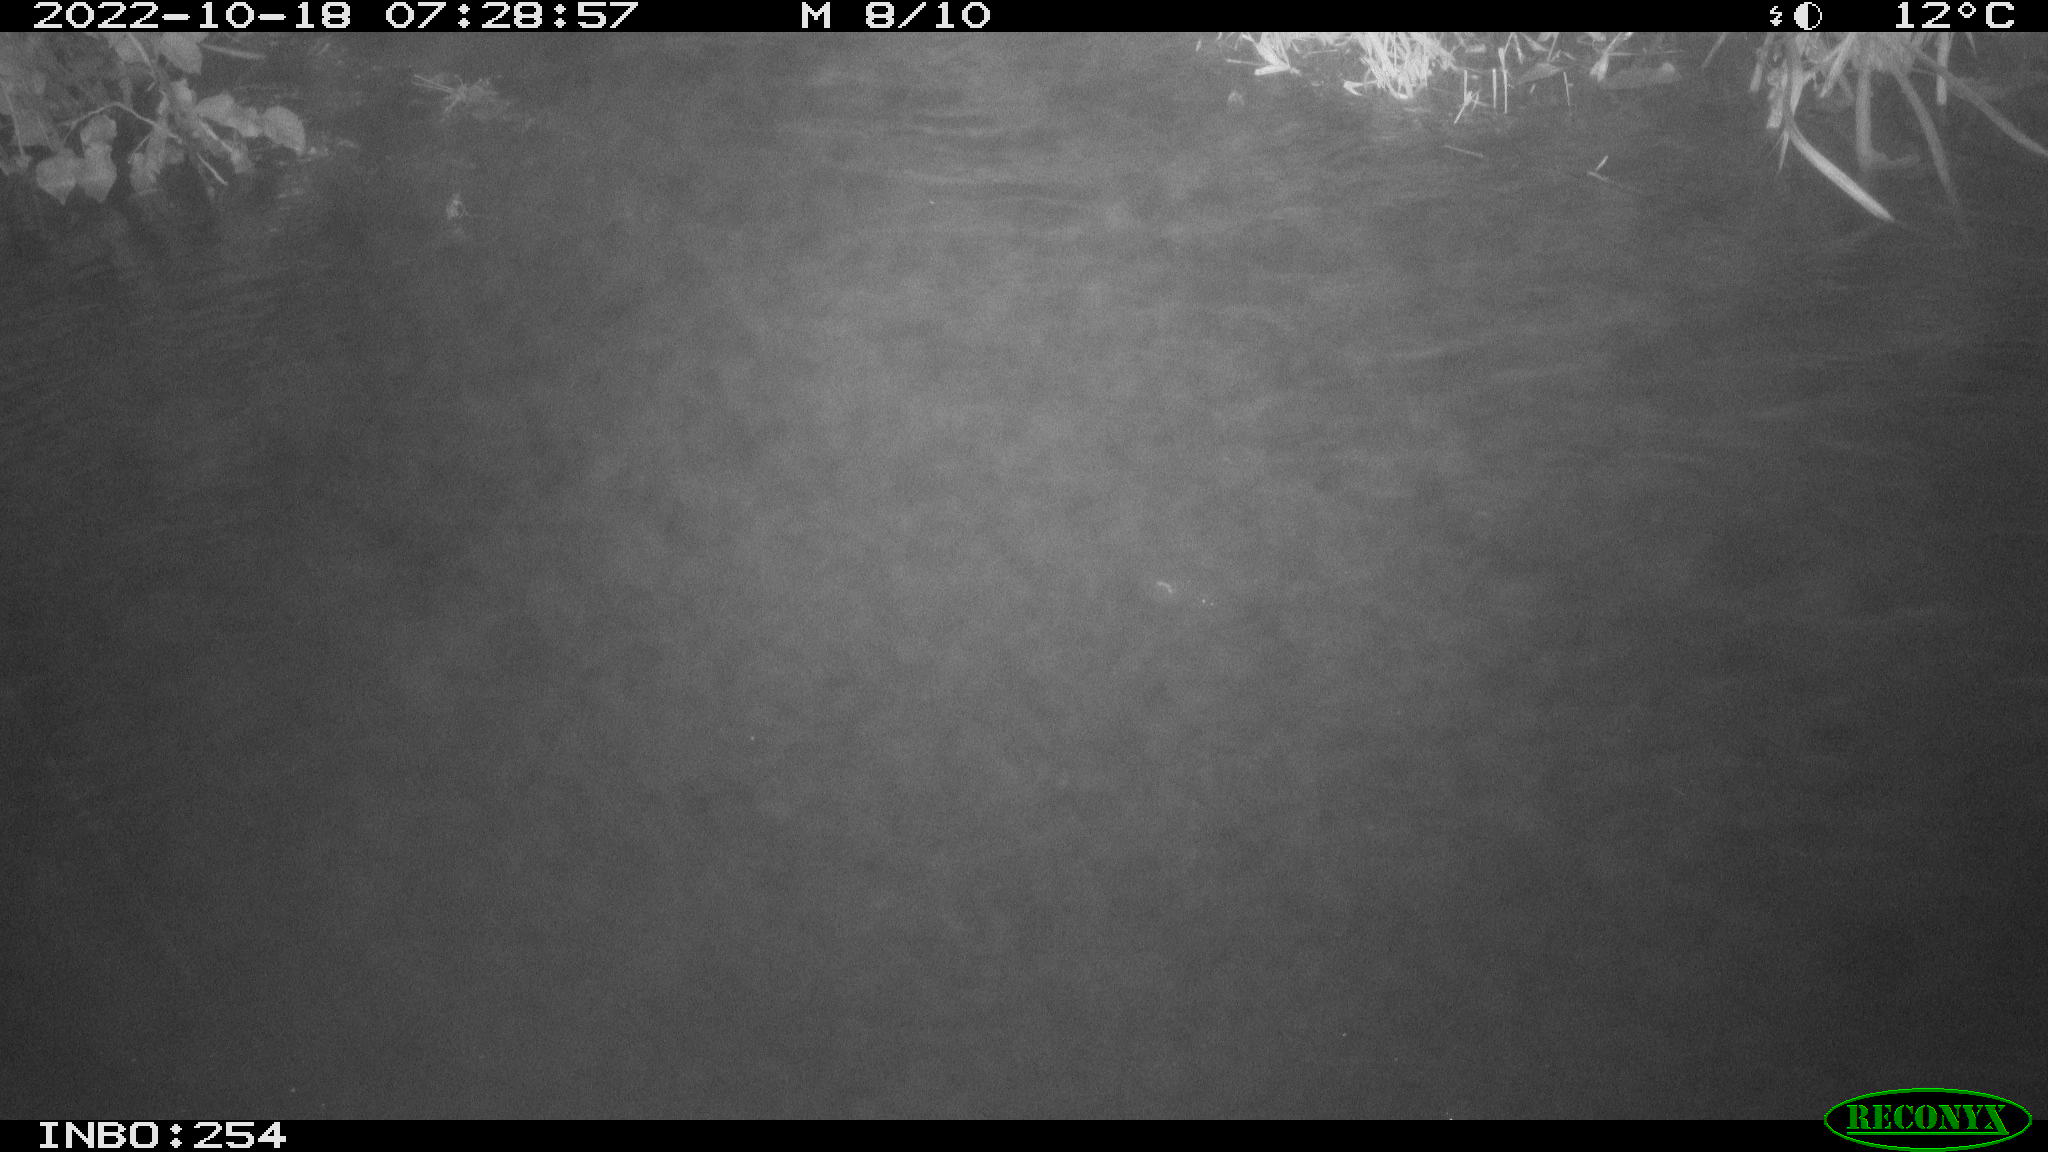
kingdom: Animalia
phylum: Chordata
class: Aves
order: Anseriformes
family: Anatidae
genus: Anas
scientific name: Anas
